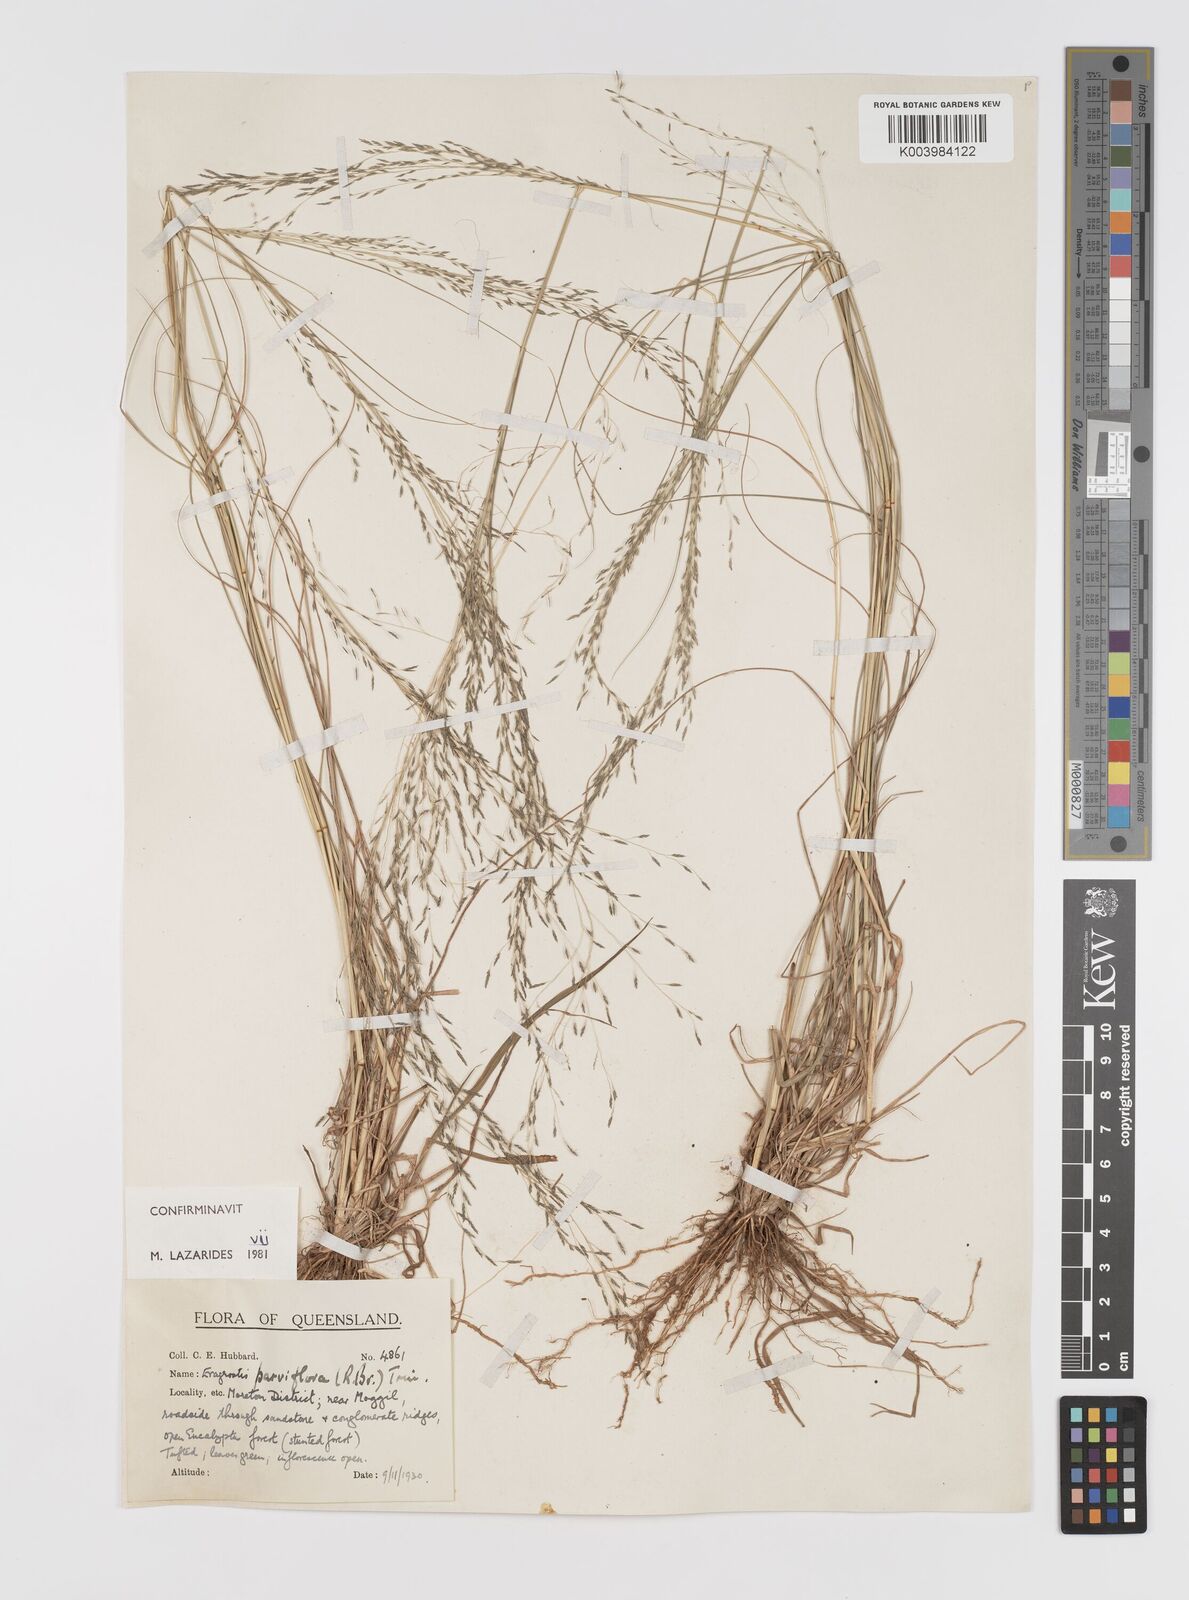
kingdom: Plantae
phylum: Tracheophyta
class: Liliopsida
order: Poales
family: Poaceae
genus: Eragrostis
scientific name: Eragrostis parviflora
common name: Weeping love-grass
